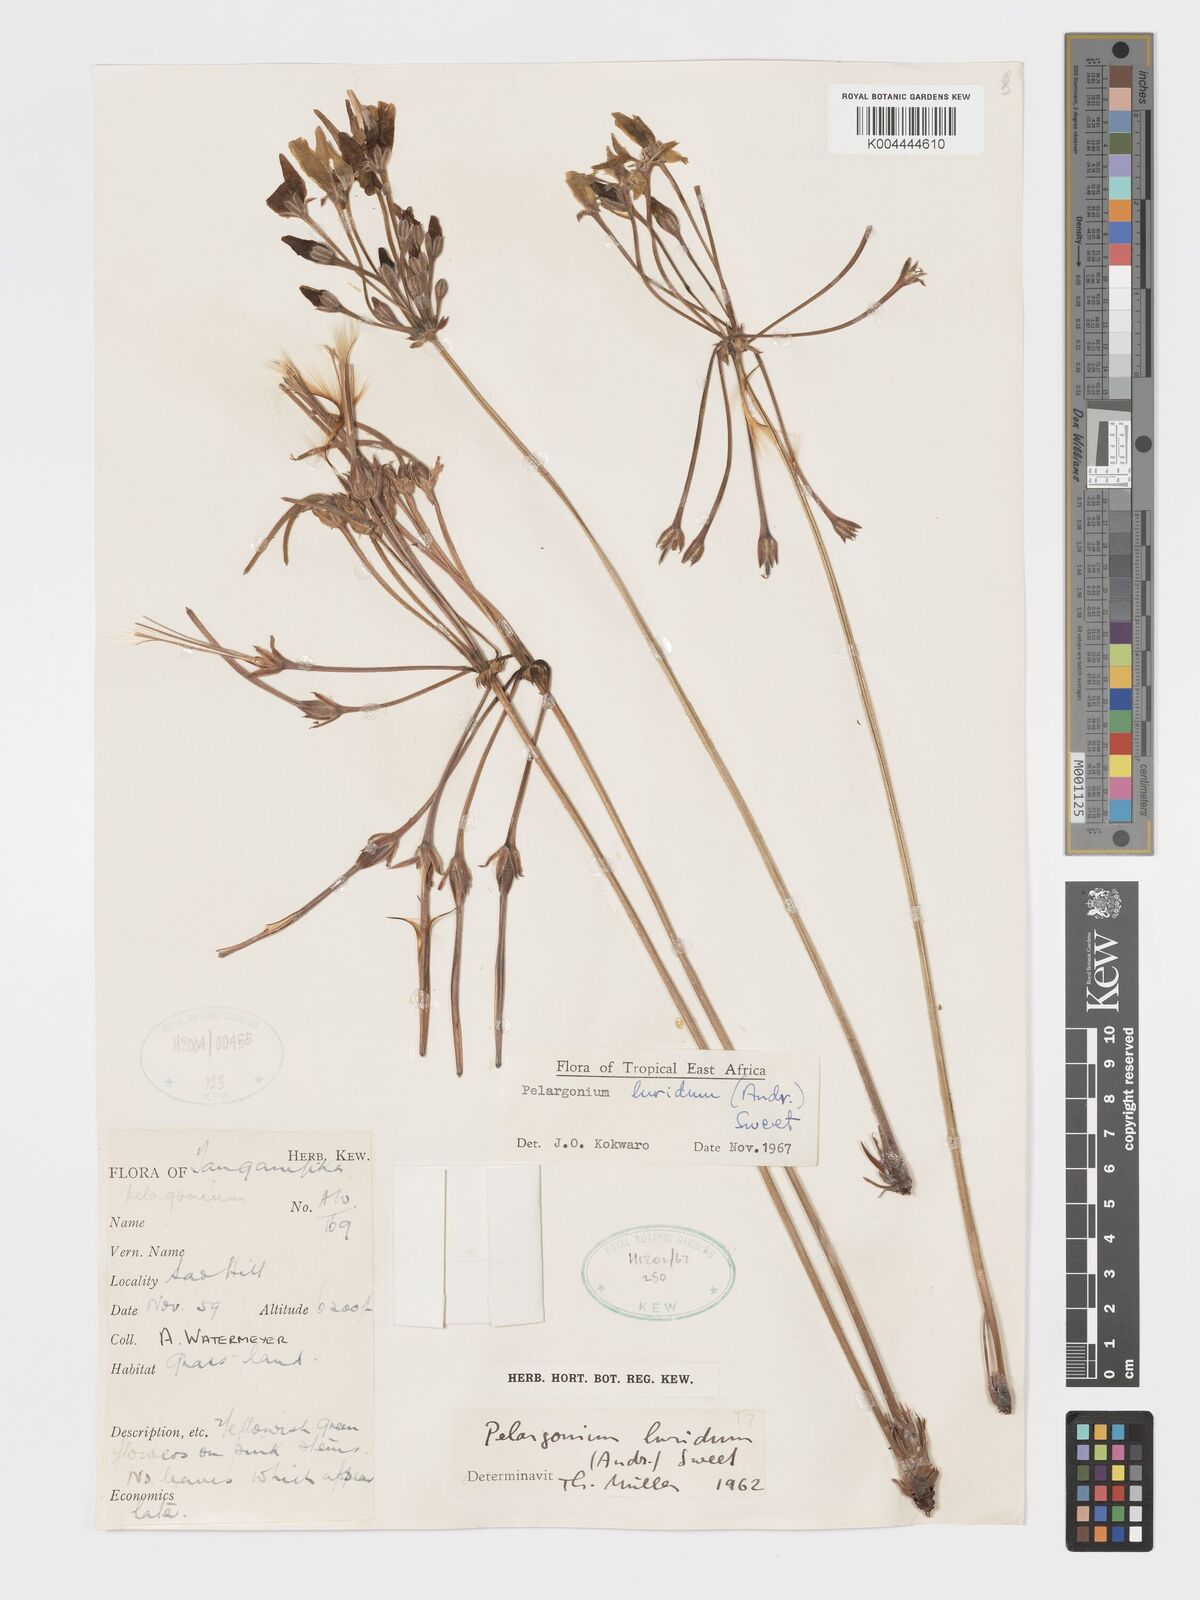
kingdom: Plantae
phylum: Tracheophyta
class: Magnoliopsida
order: Geraniales
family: Geraniaceae
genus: Pelargonium
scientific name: Pelargonium luridum
